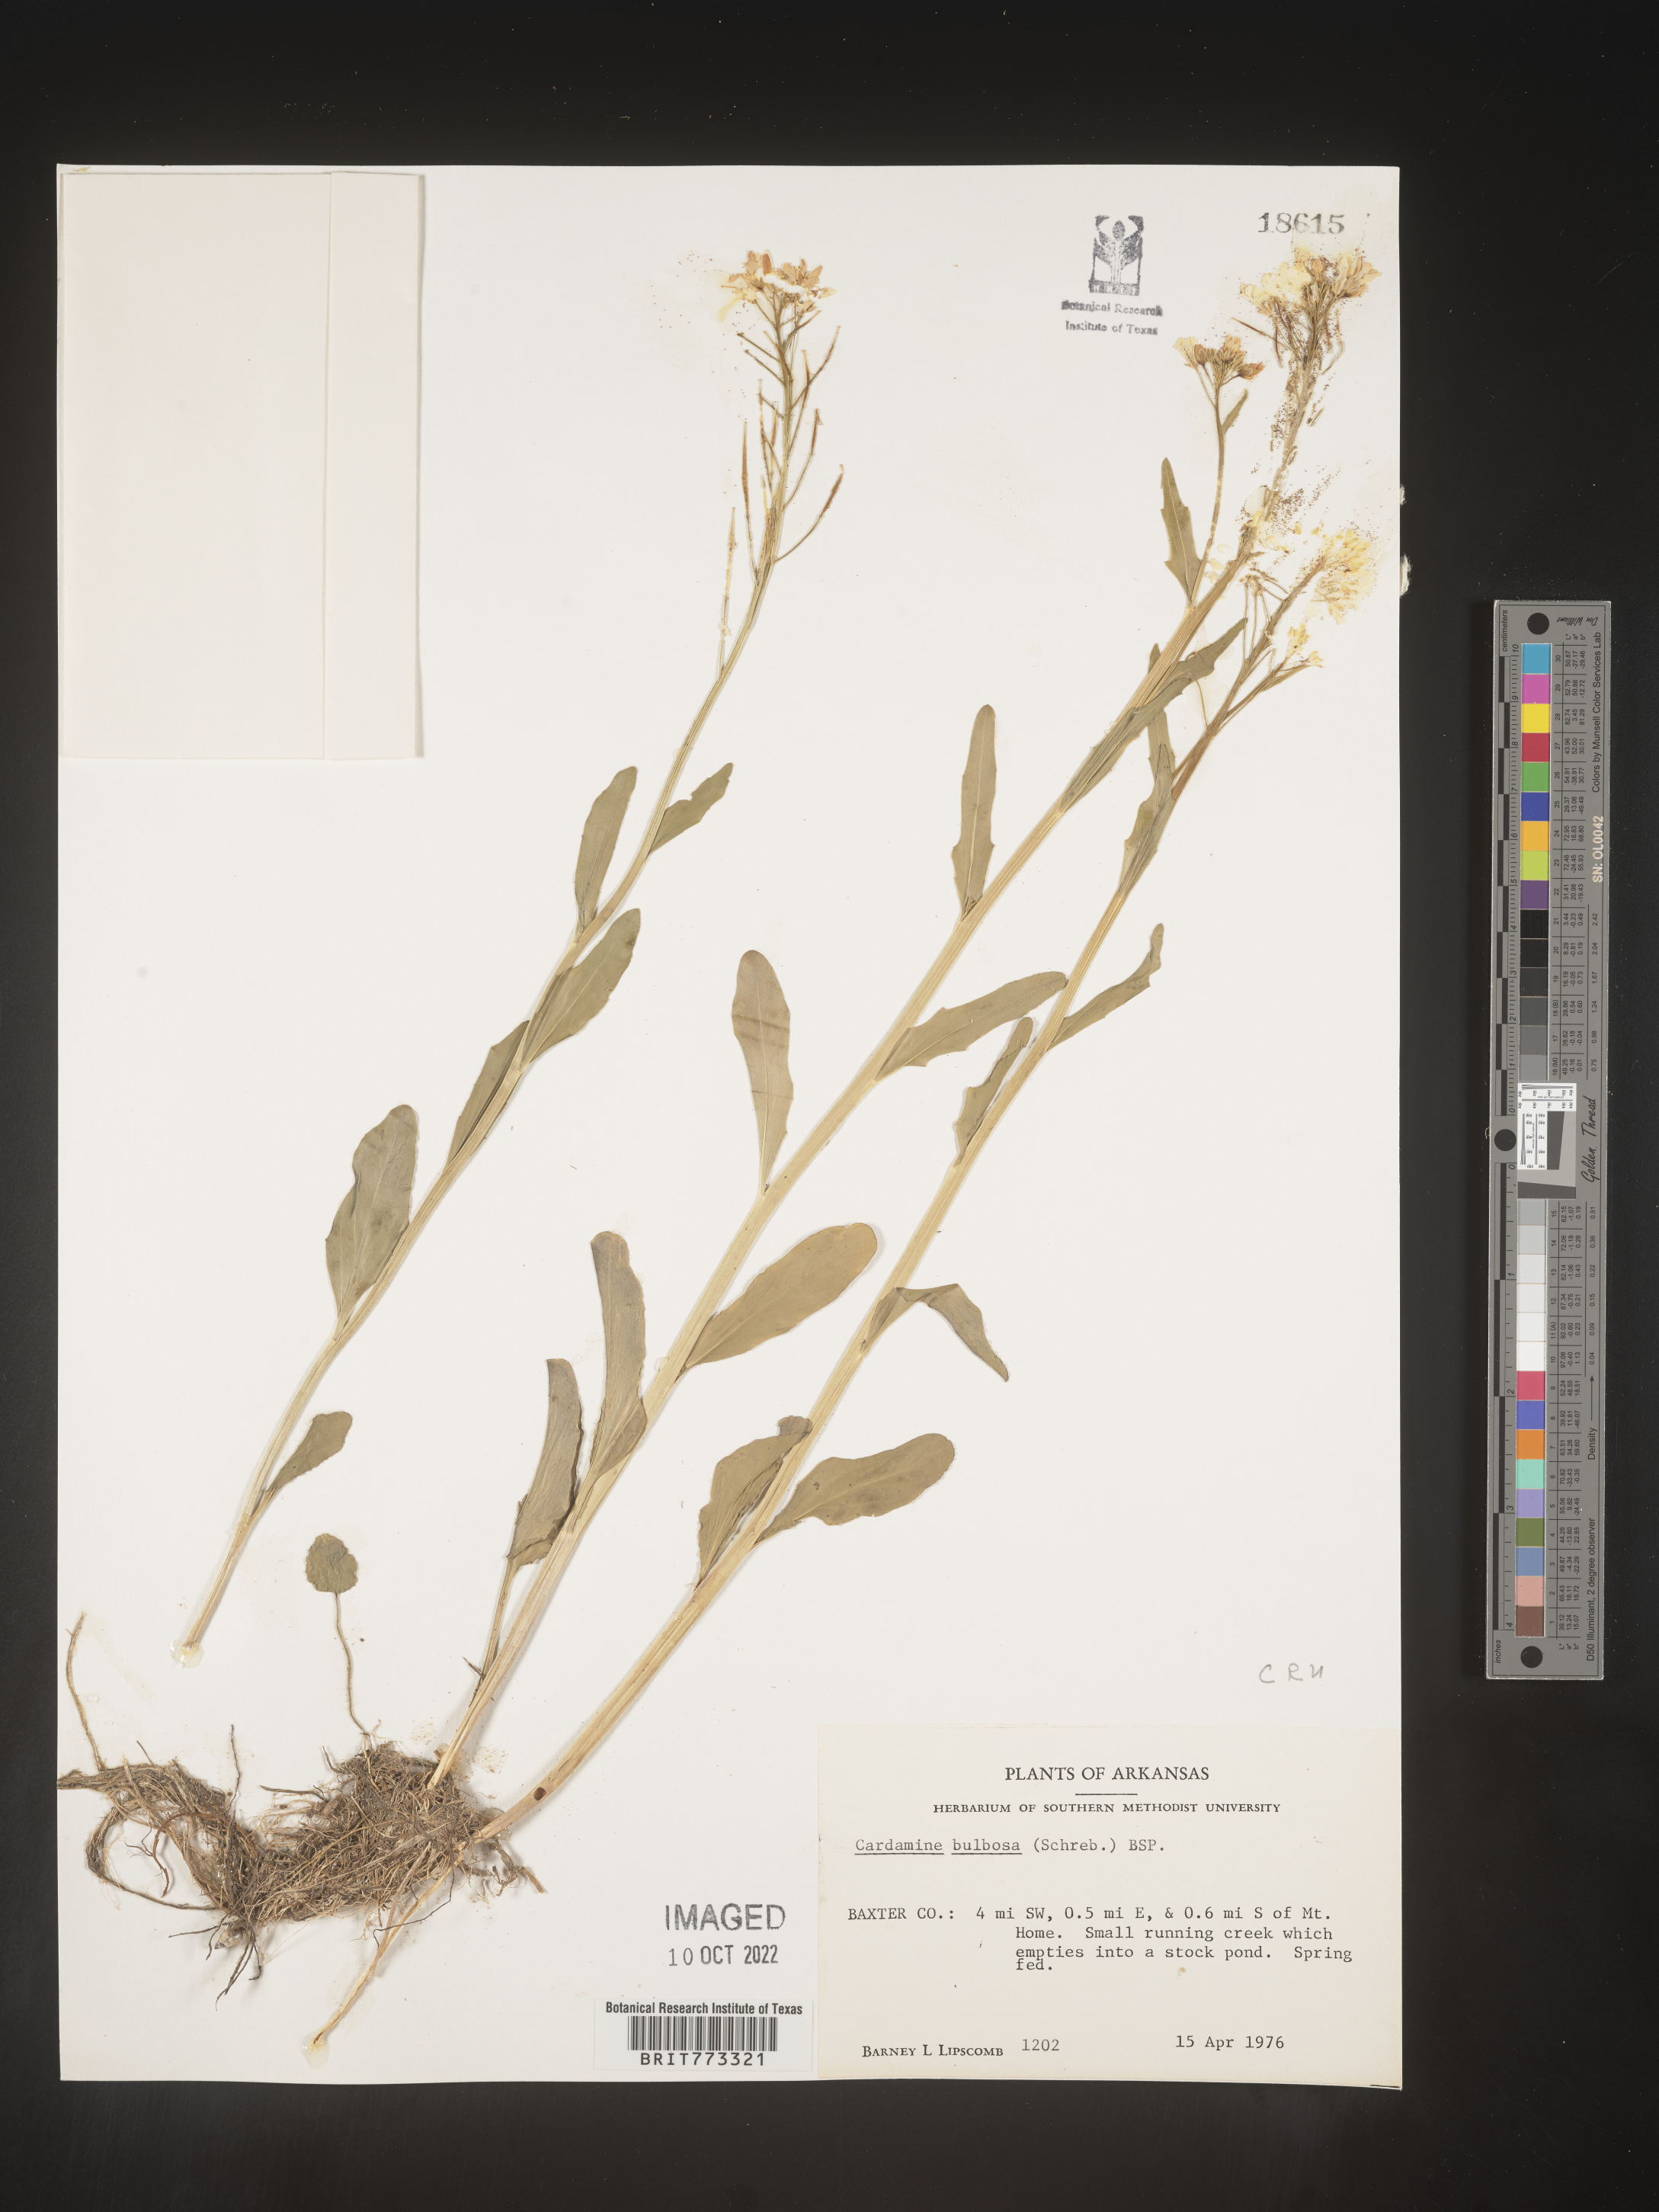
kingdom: Plantae
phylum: Tracheophyta
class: Magnoliopsida
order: Brassicales
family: Brassicaceae
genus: Cardamine
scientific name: Cardamine bulbosa
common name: Spring cress
